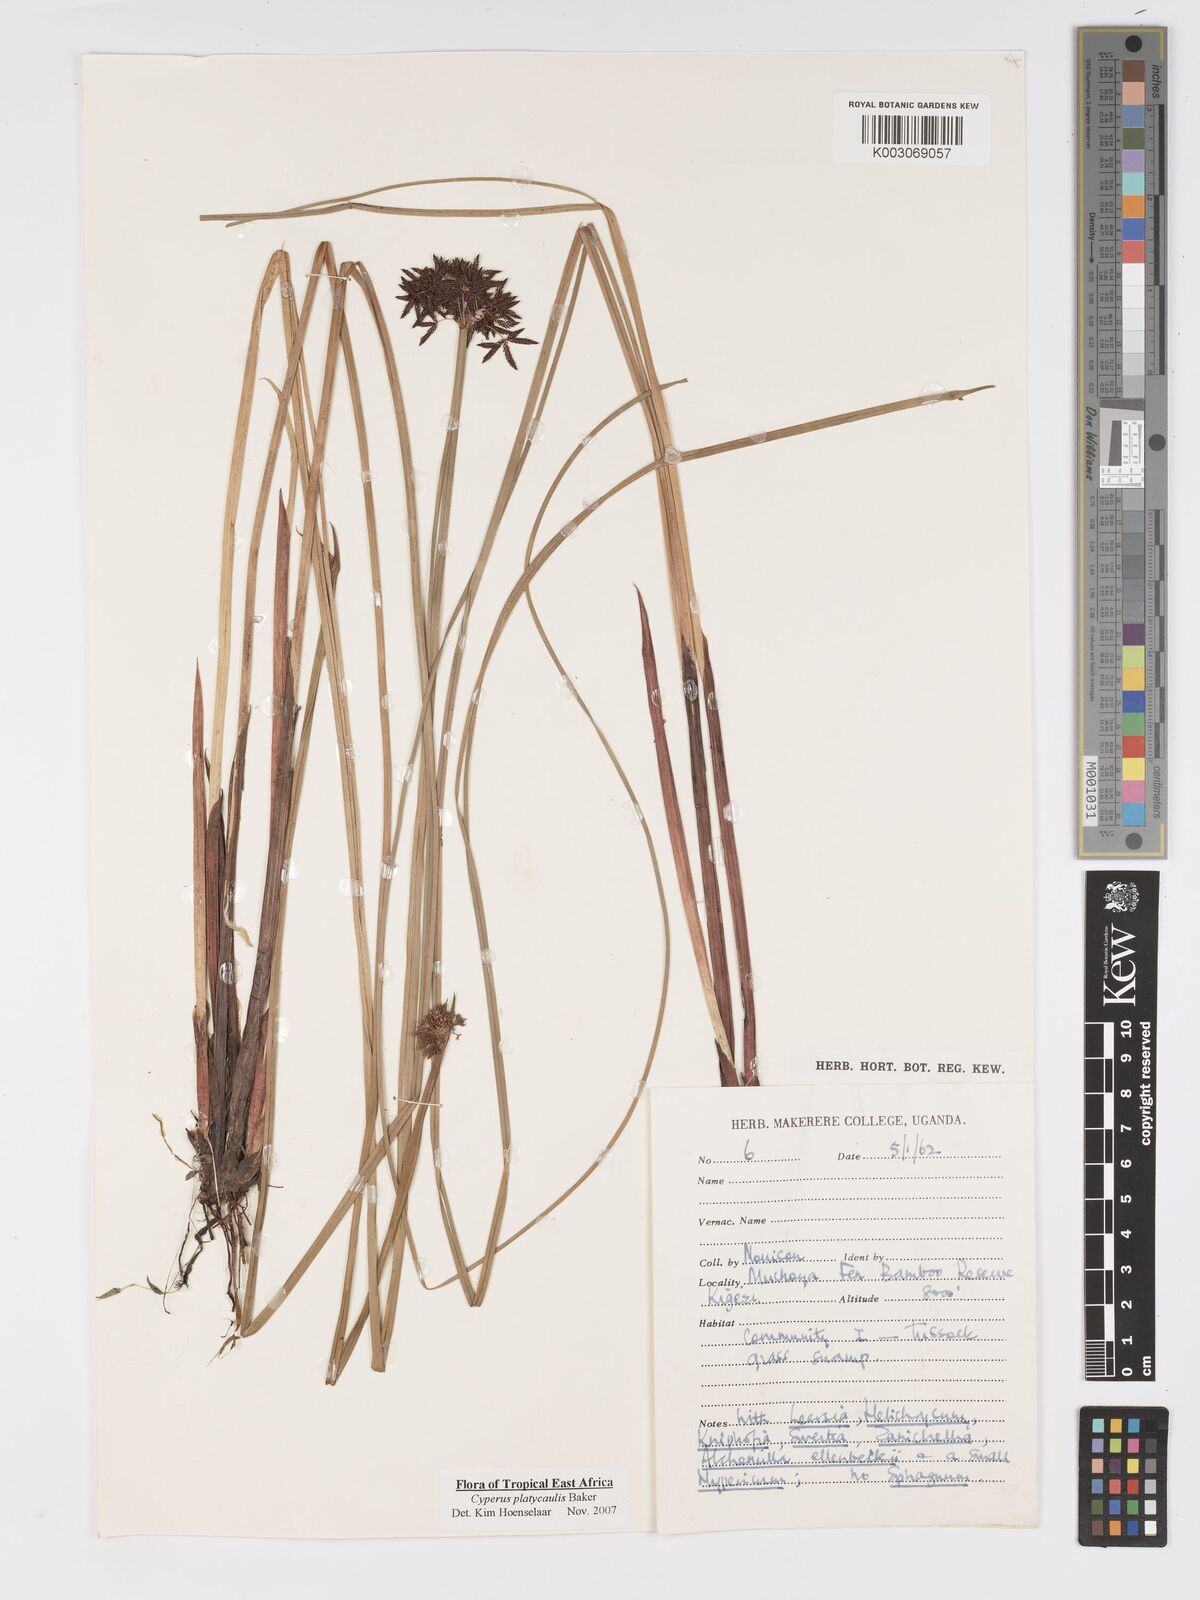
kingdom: Plantae
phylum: Tracheophyta
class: Liliopsida
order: Poales
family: Cyperaceae
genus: Cyperus
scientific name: Cyperus platycaulis
